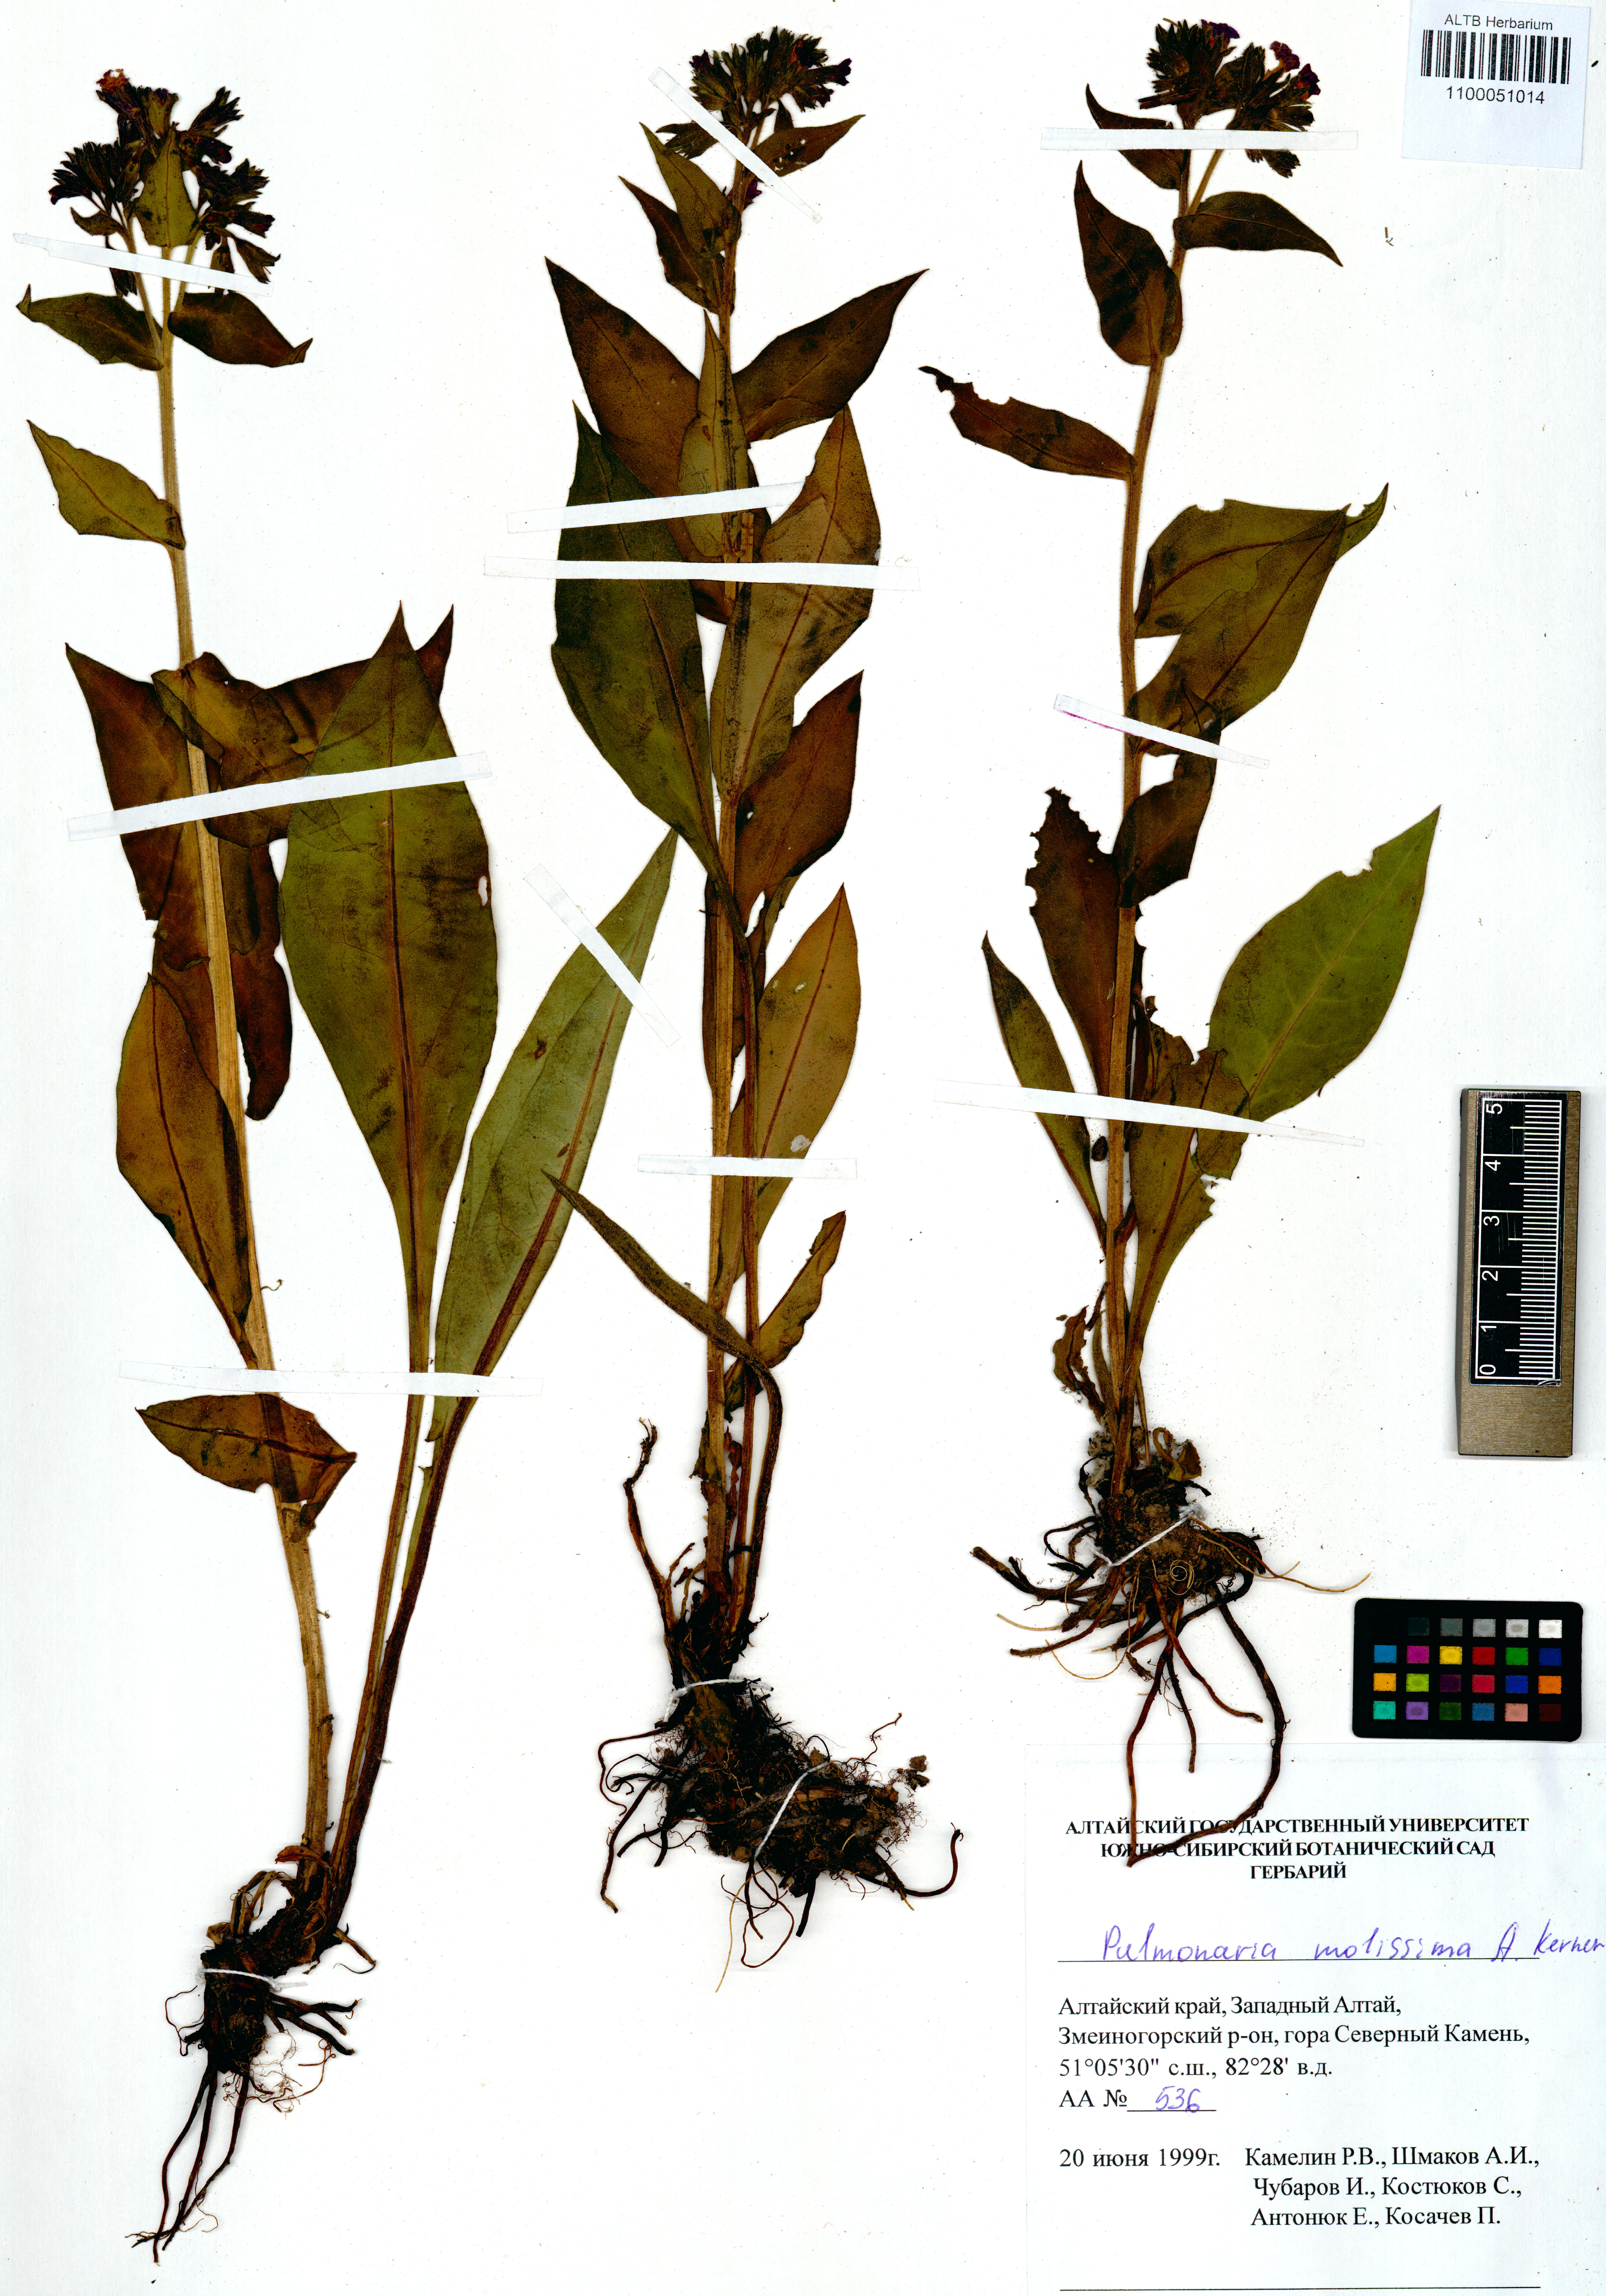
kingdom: Plantae
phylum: Tracheophyta
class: Magnoliopsida
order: Boraginales
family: Boraginaceae
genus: Pulmonaria
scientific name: Pulmonaria mollis
